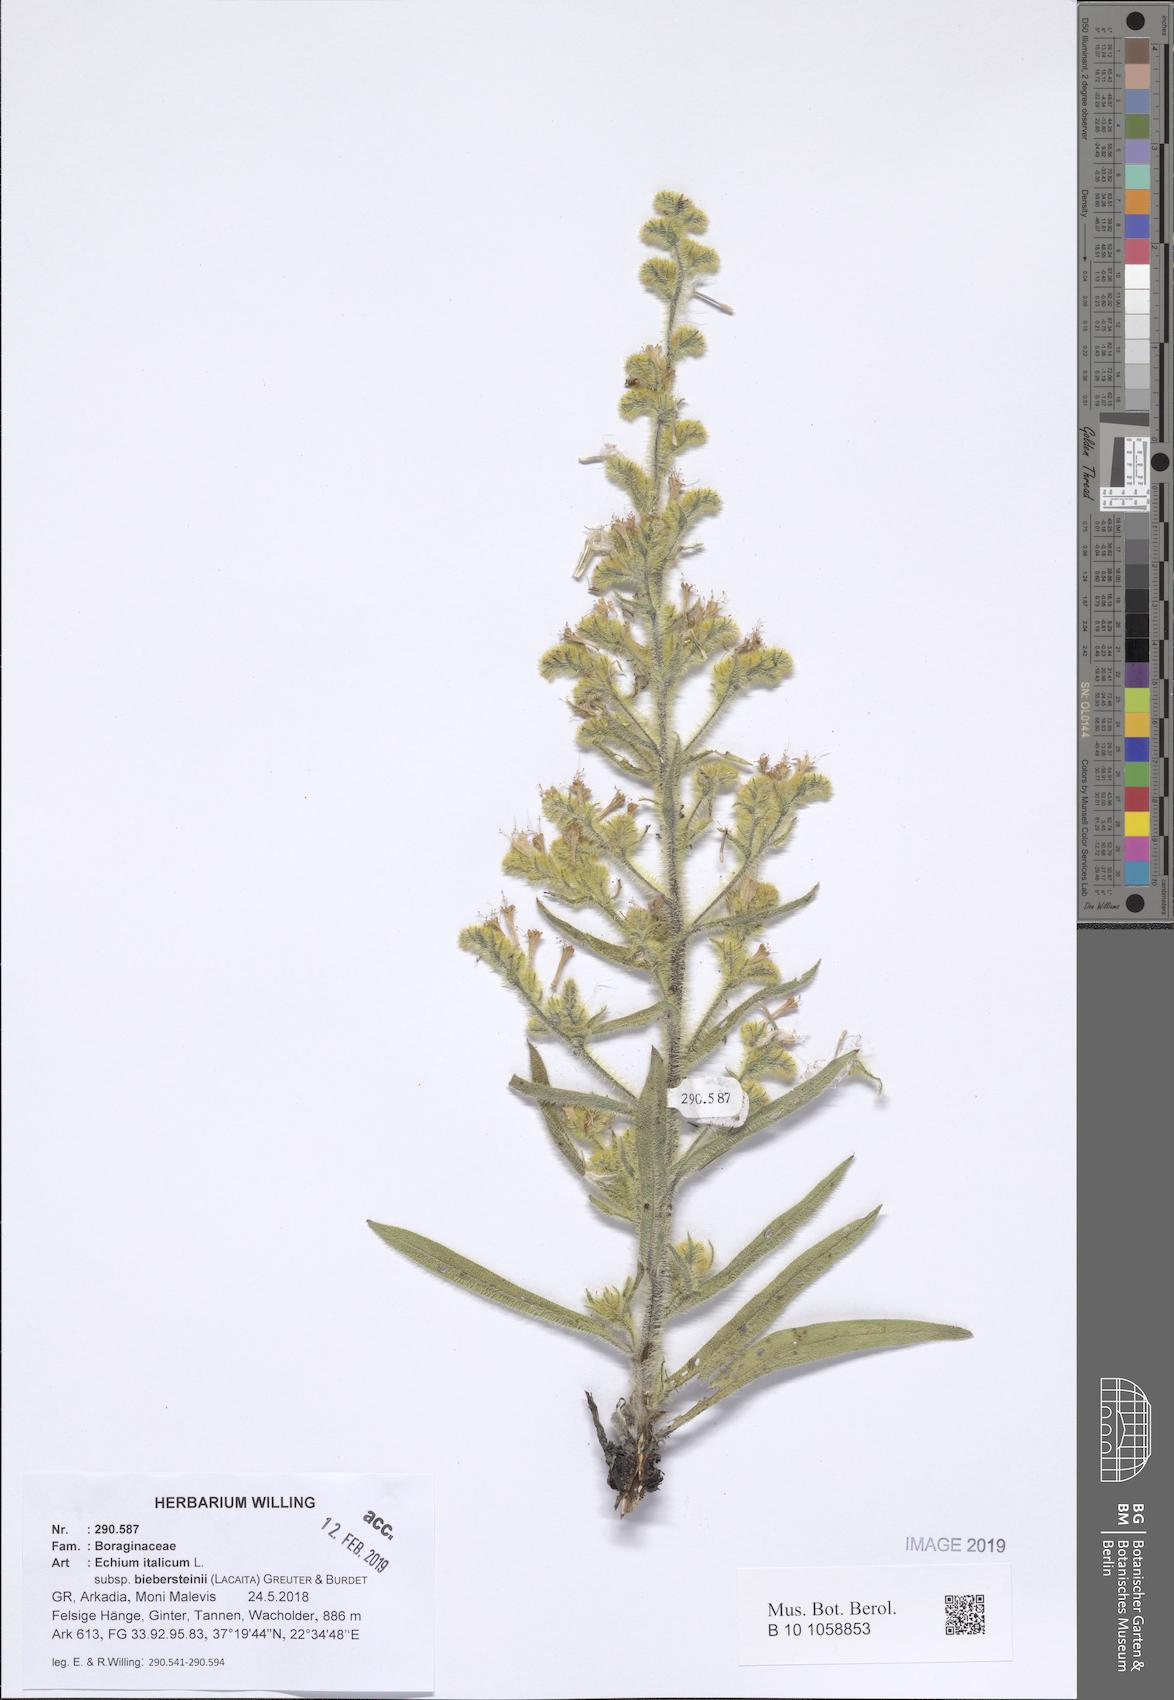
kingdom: Plantae
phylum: Tracheophyta
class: Magnoliopsida
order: Boraginales
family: Boraginaceae
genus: Echium
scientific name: Echium italicum
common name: Italian viper's bugloss
